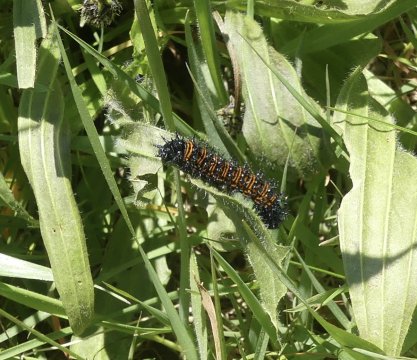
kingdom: Animalia
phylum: Arthropoda
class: Insecta
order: Lepidoptera
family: Nymphalidae
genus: Euphydryas
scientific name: Euphydryas phaeton
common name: Baltimore Checkerspot
